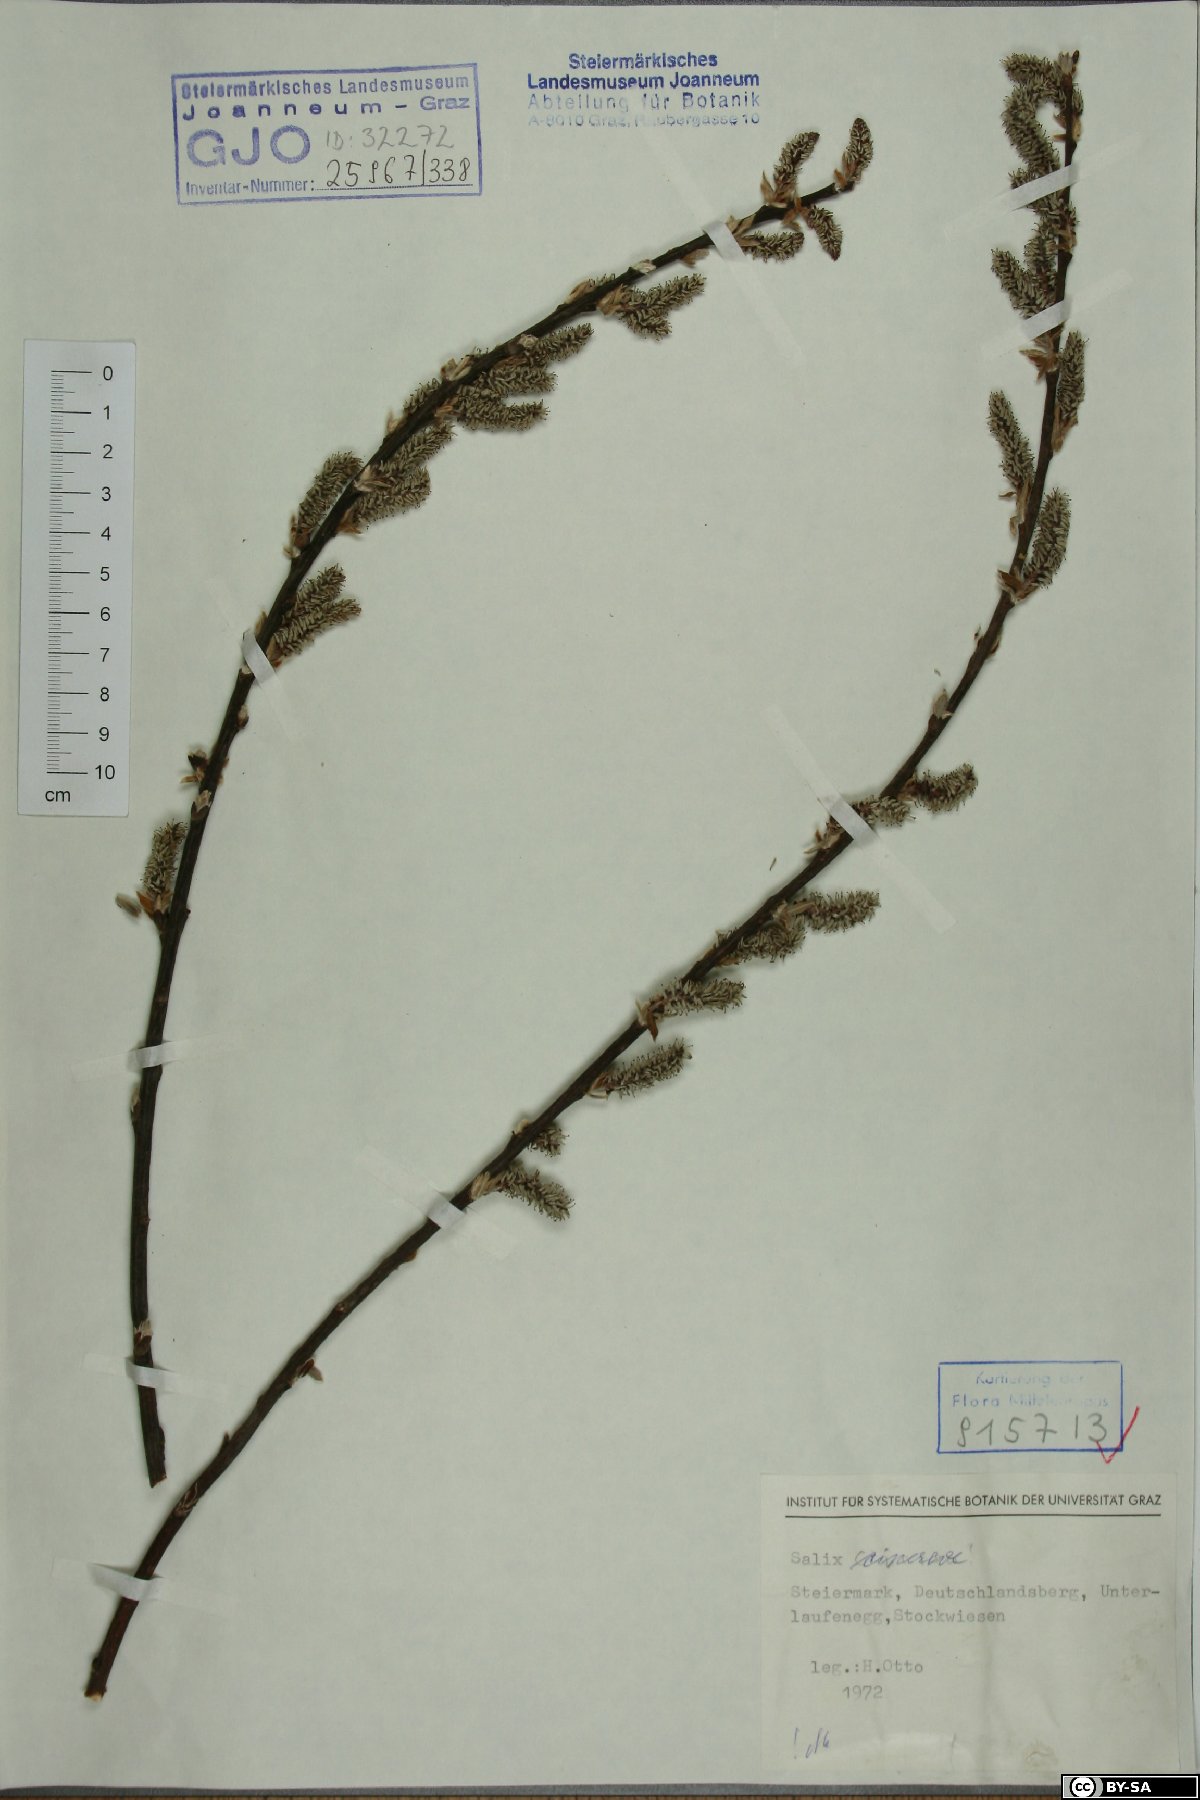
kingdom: Plantae
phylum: Tracheophyta
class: Magnoliopsida
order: Malpighiales
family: Salicaceae
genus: Salix
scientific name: Salix cinerea
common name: Common sallow
